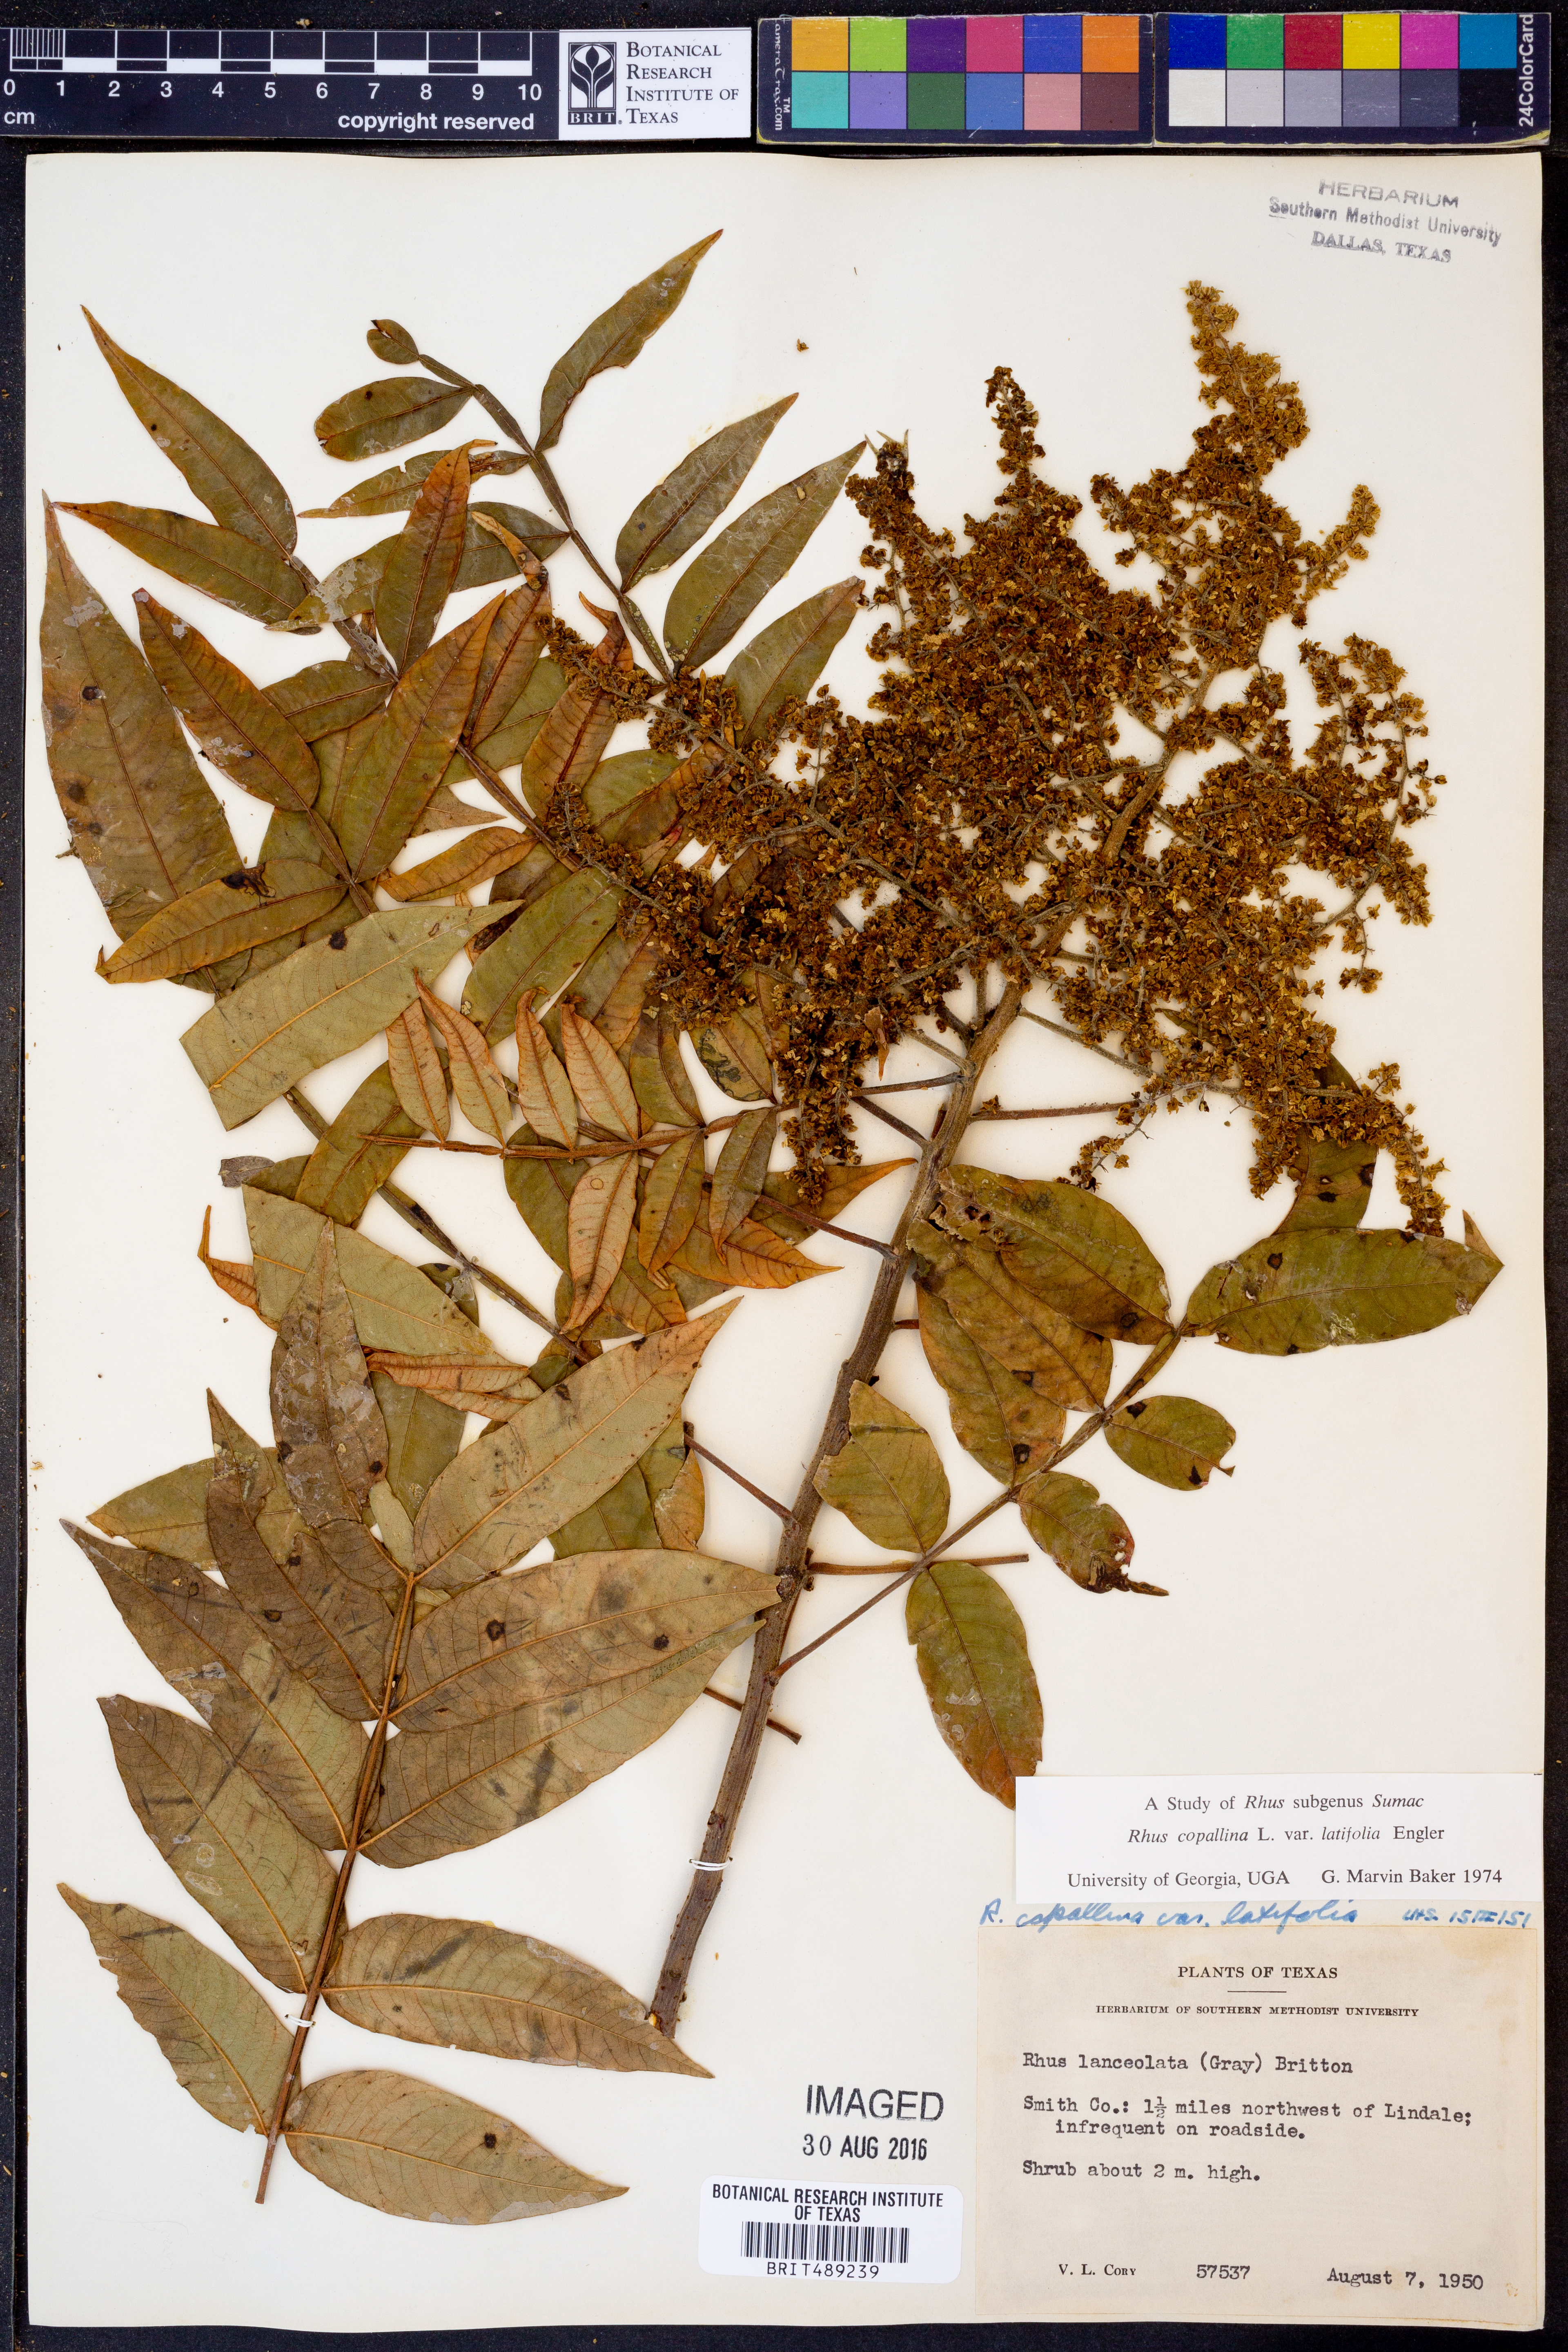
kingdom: Plantae
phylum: Tracheophyta
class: Magnoliopsida
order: Sapindales
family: Anacardiaceae
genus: Rhus
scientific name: Rhus copallina
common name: Shining sumac
